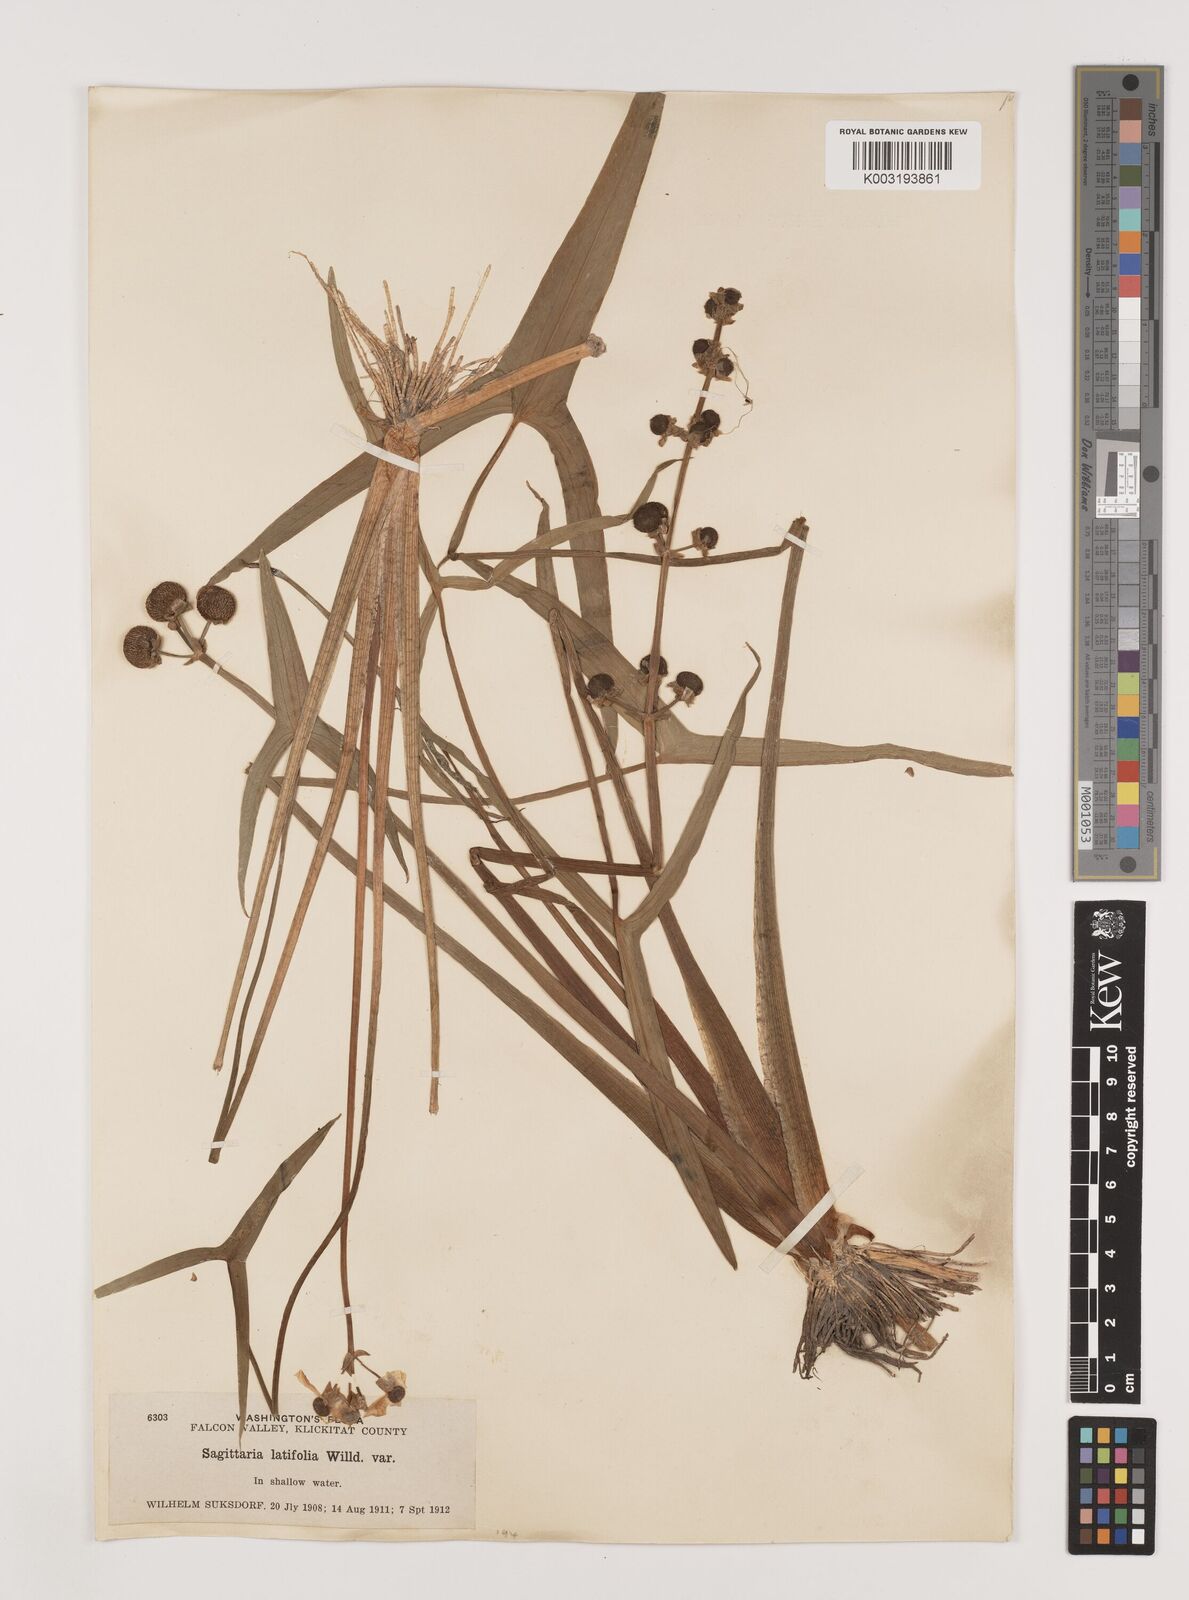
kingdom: Plantae
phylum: Tracheophyta
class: Liliopsida
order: Alismatales
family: Alismataceae
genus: Sagittaria
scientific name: Sagittaria latifolia
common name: Duck-potato
